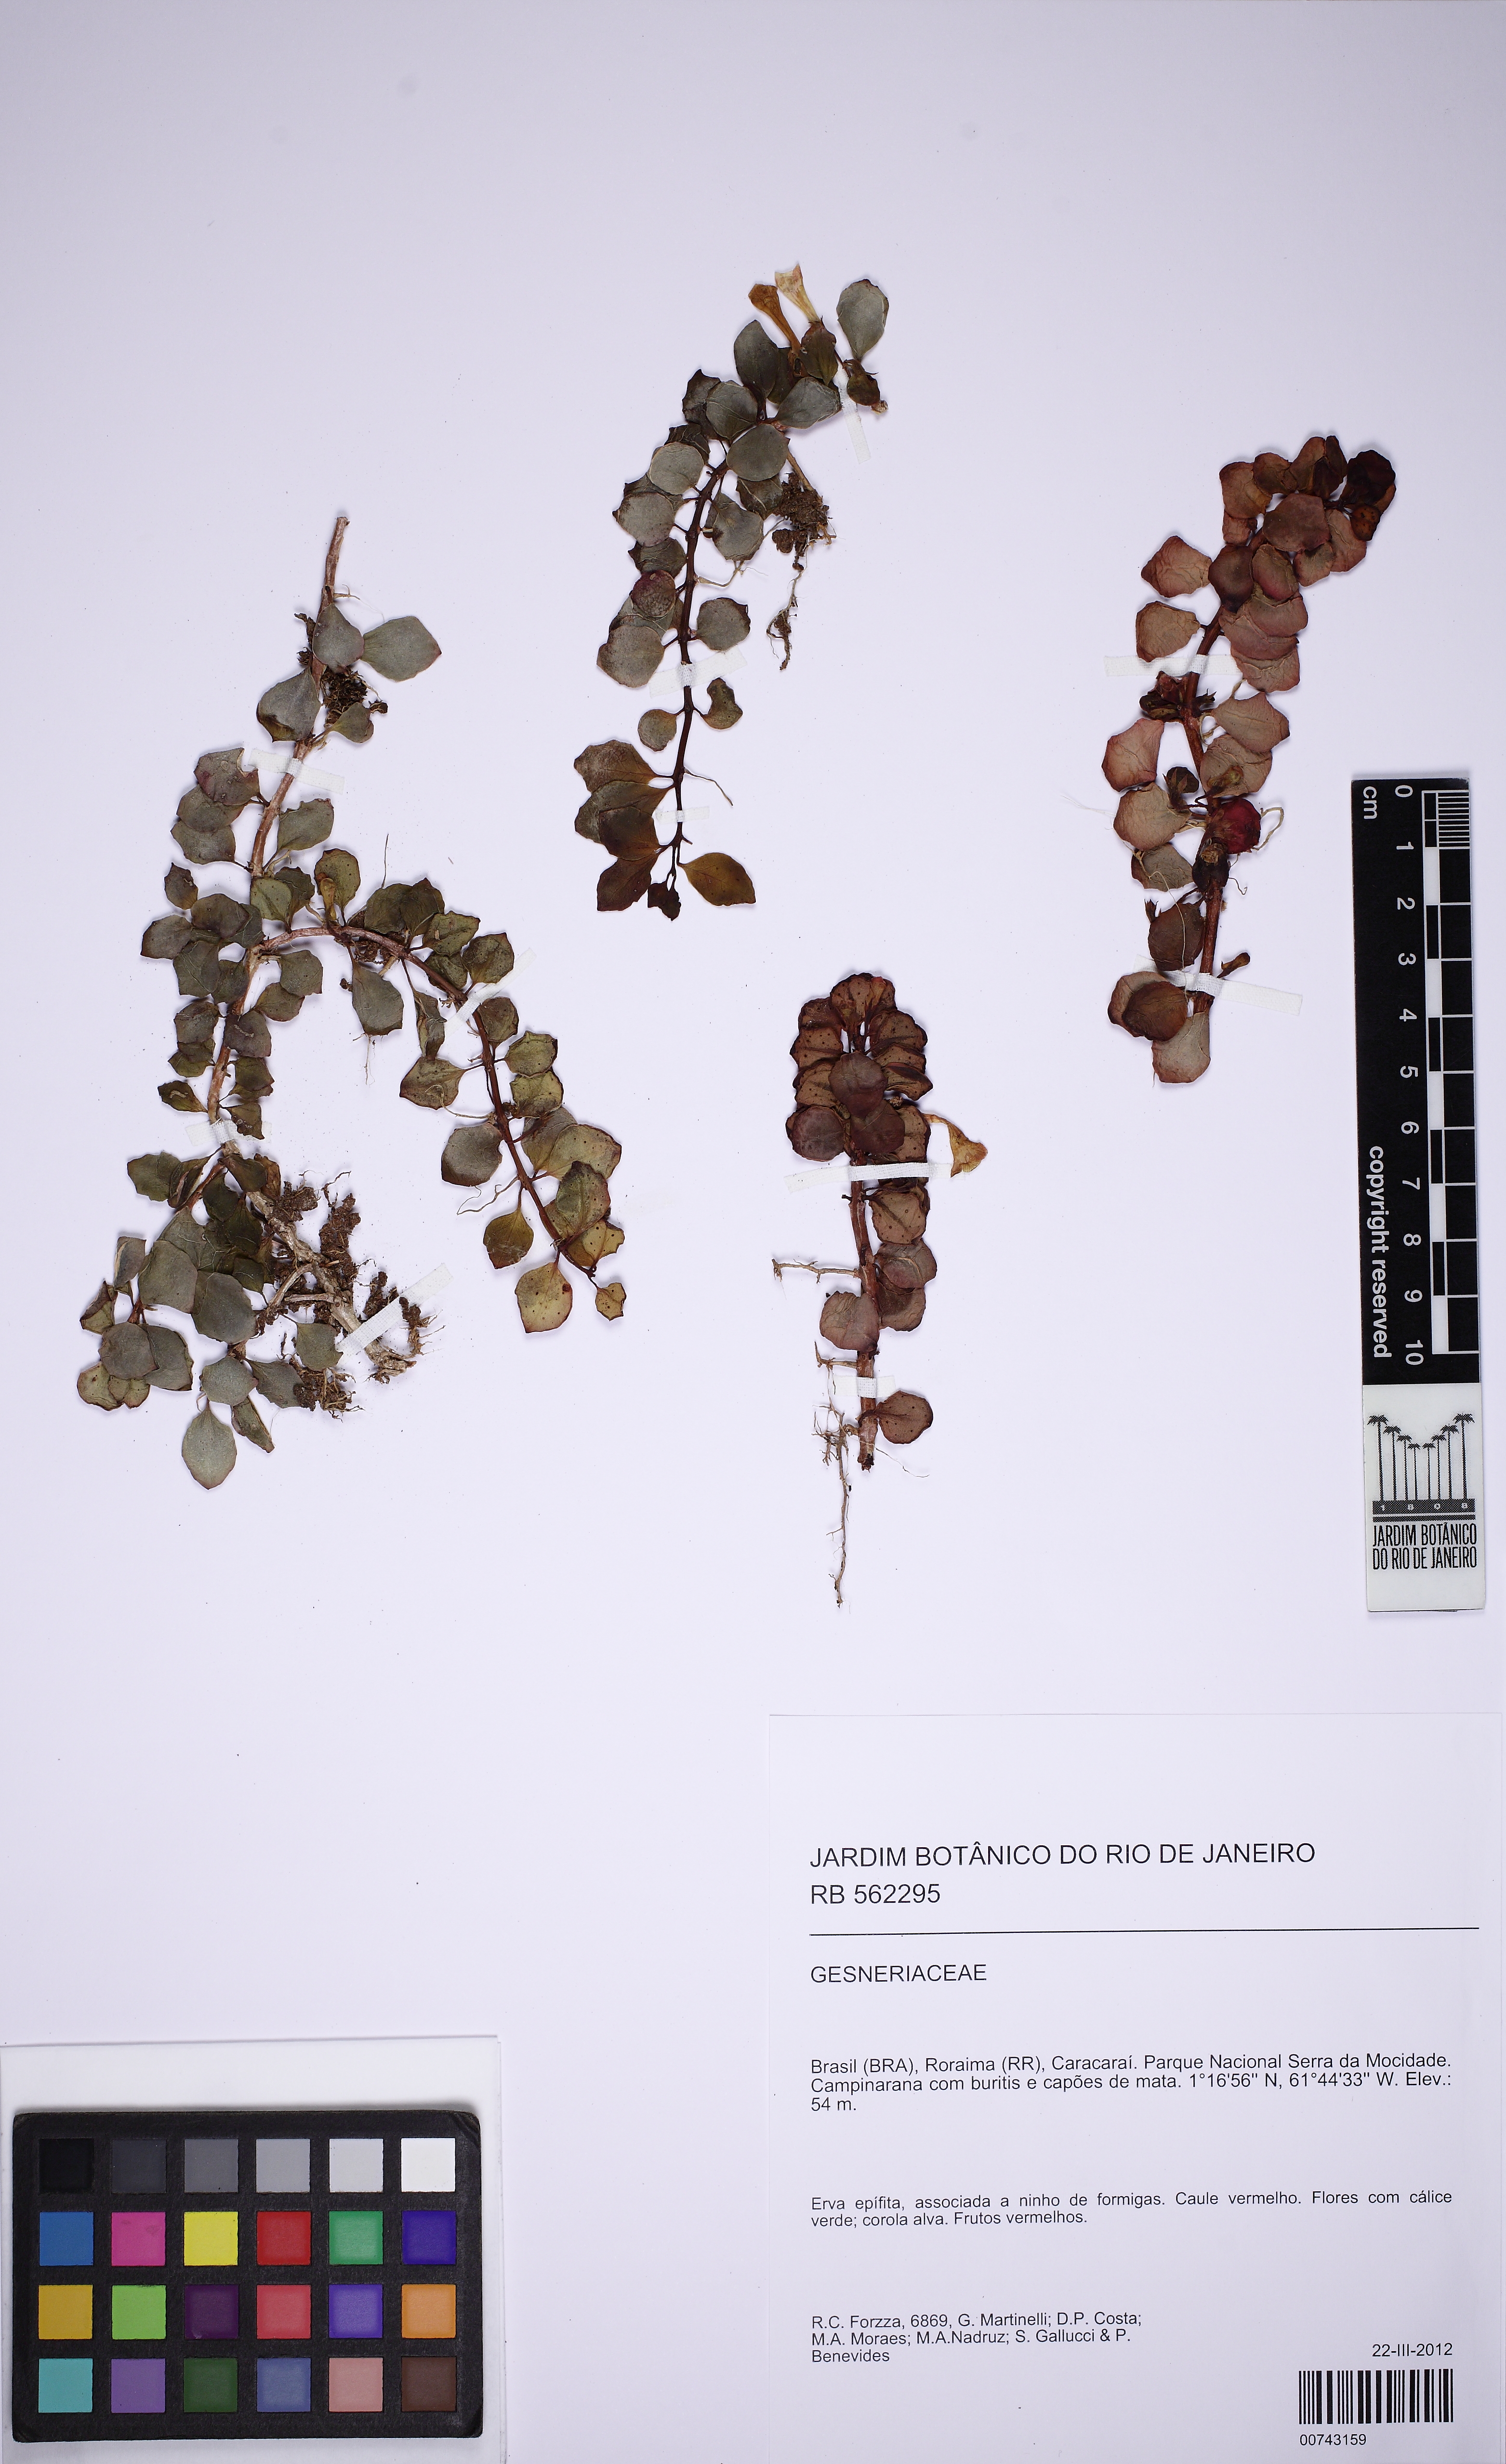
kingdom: Plantae
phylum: Tracheophyta
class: Magnoliopsida
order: Lamiales
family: Gesneriaceae
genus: Codonanthopsis
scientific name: Codonanthopsis
